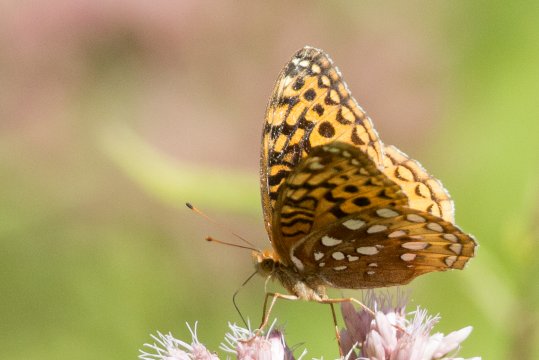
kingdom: Animalia
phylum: Arthropoda
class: Insecta
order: Lepidoptera
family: Nymphalidae
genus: Speyeria
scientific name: Speyeria cybele
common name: Great Spangled Fritillary
